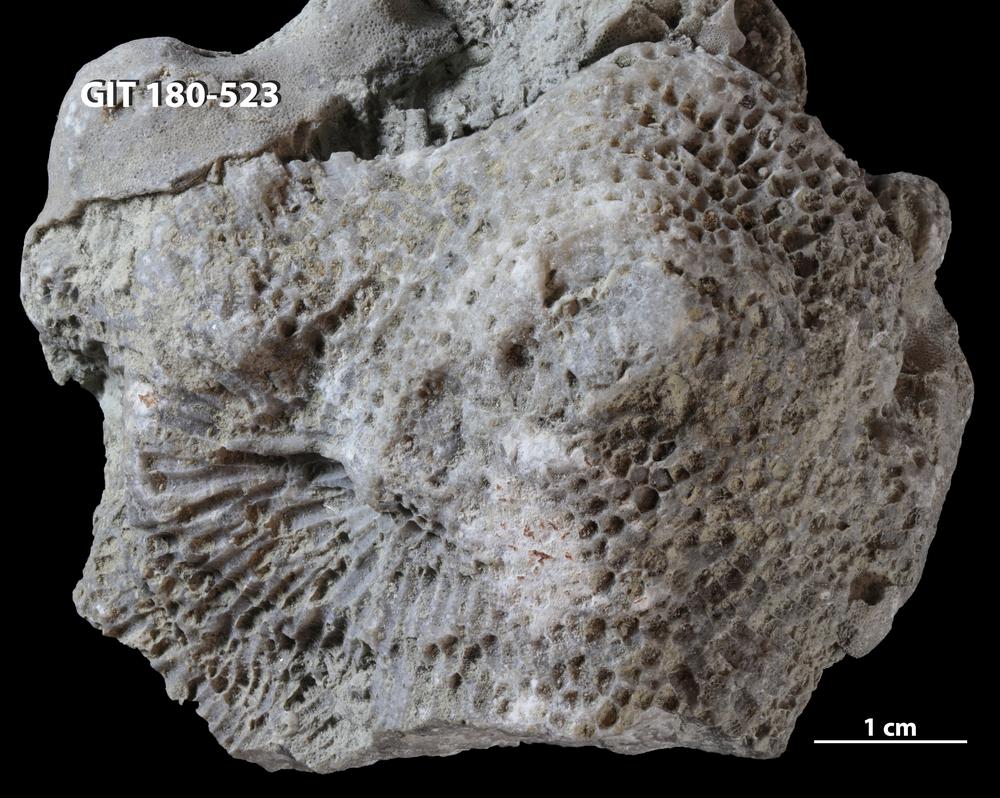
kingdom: Animalia
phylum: Cnidaria
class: Anthozoa
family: Favositidae
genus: Favosites
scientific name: Favosites
